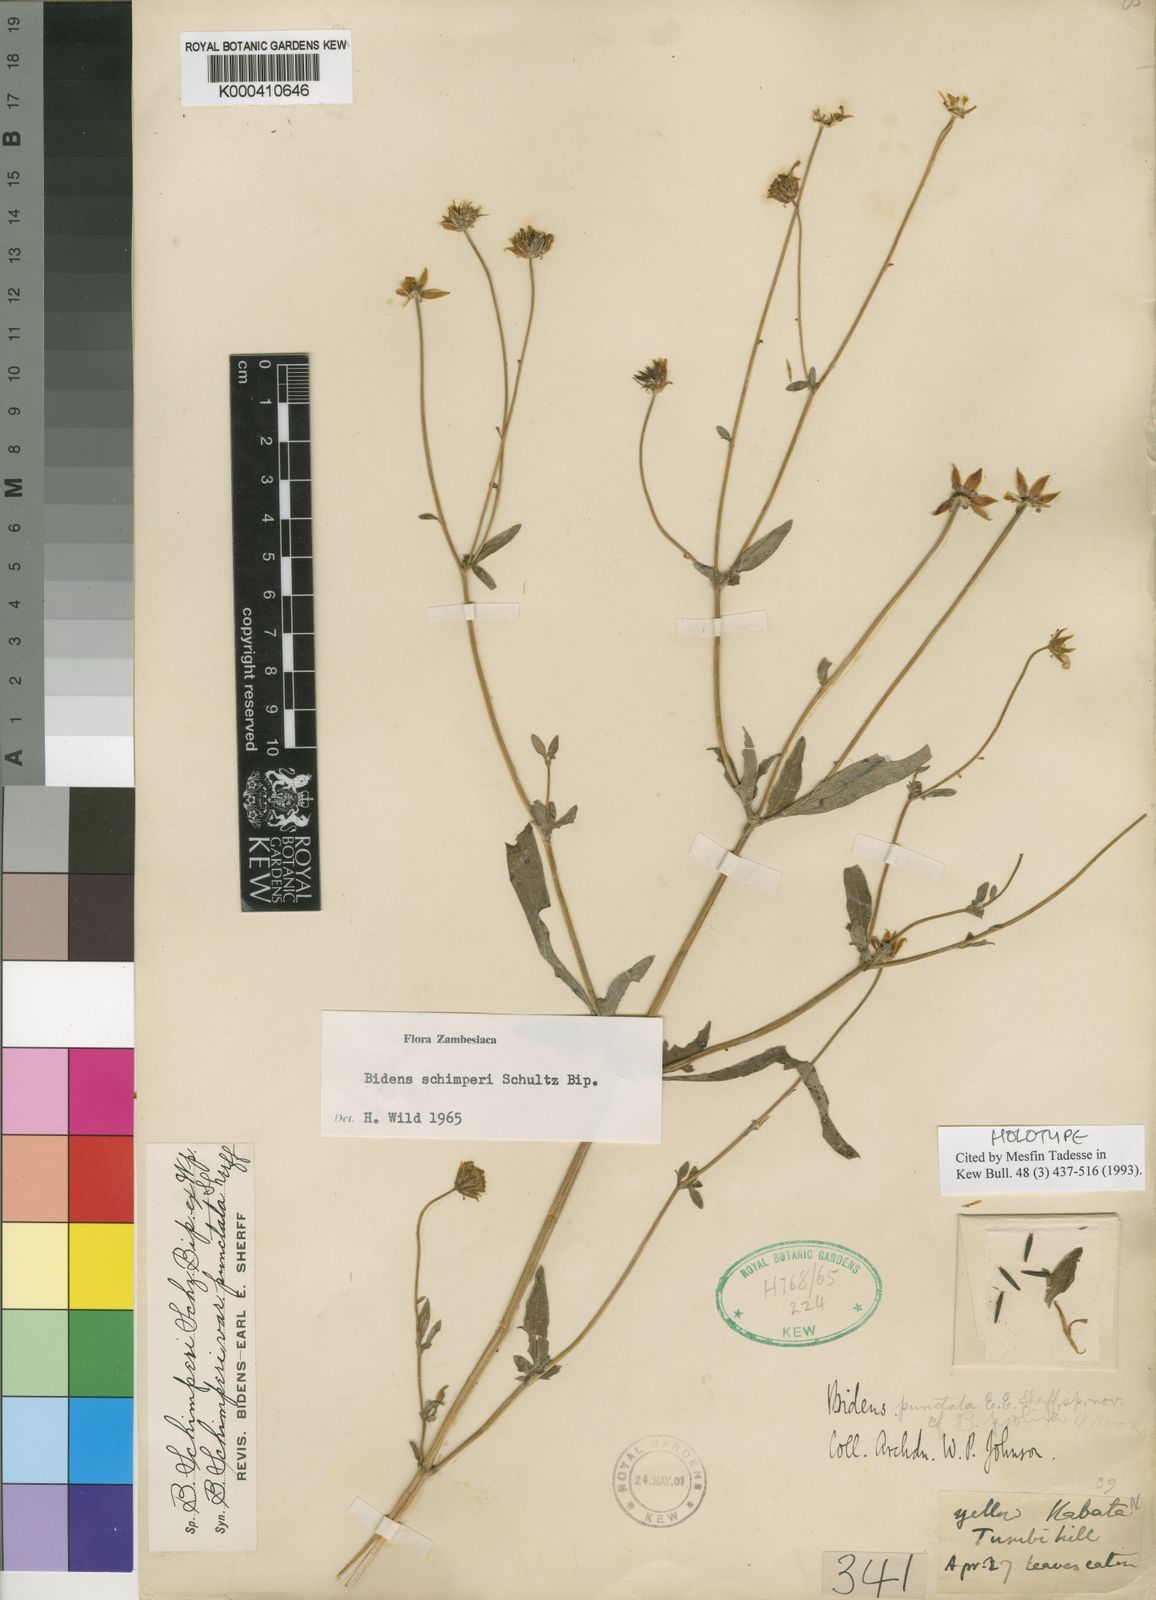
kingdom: Plantae
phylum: Tracheophyta
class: Magnoliopsida
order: Asterales
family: Asteraceae
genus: Bidens
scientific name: Bidens schimperi
